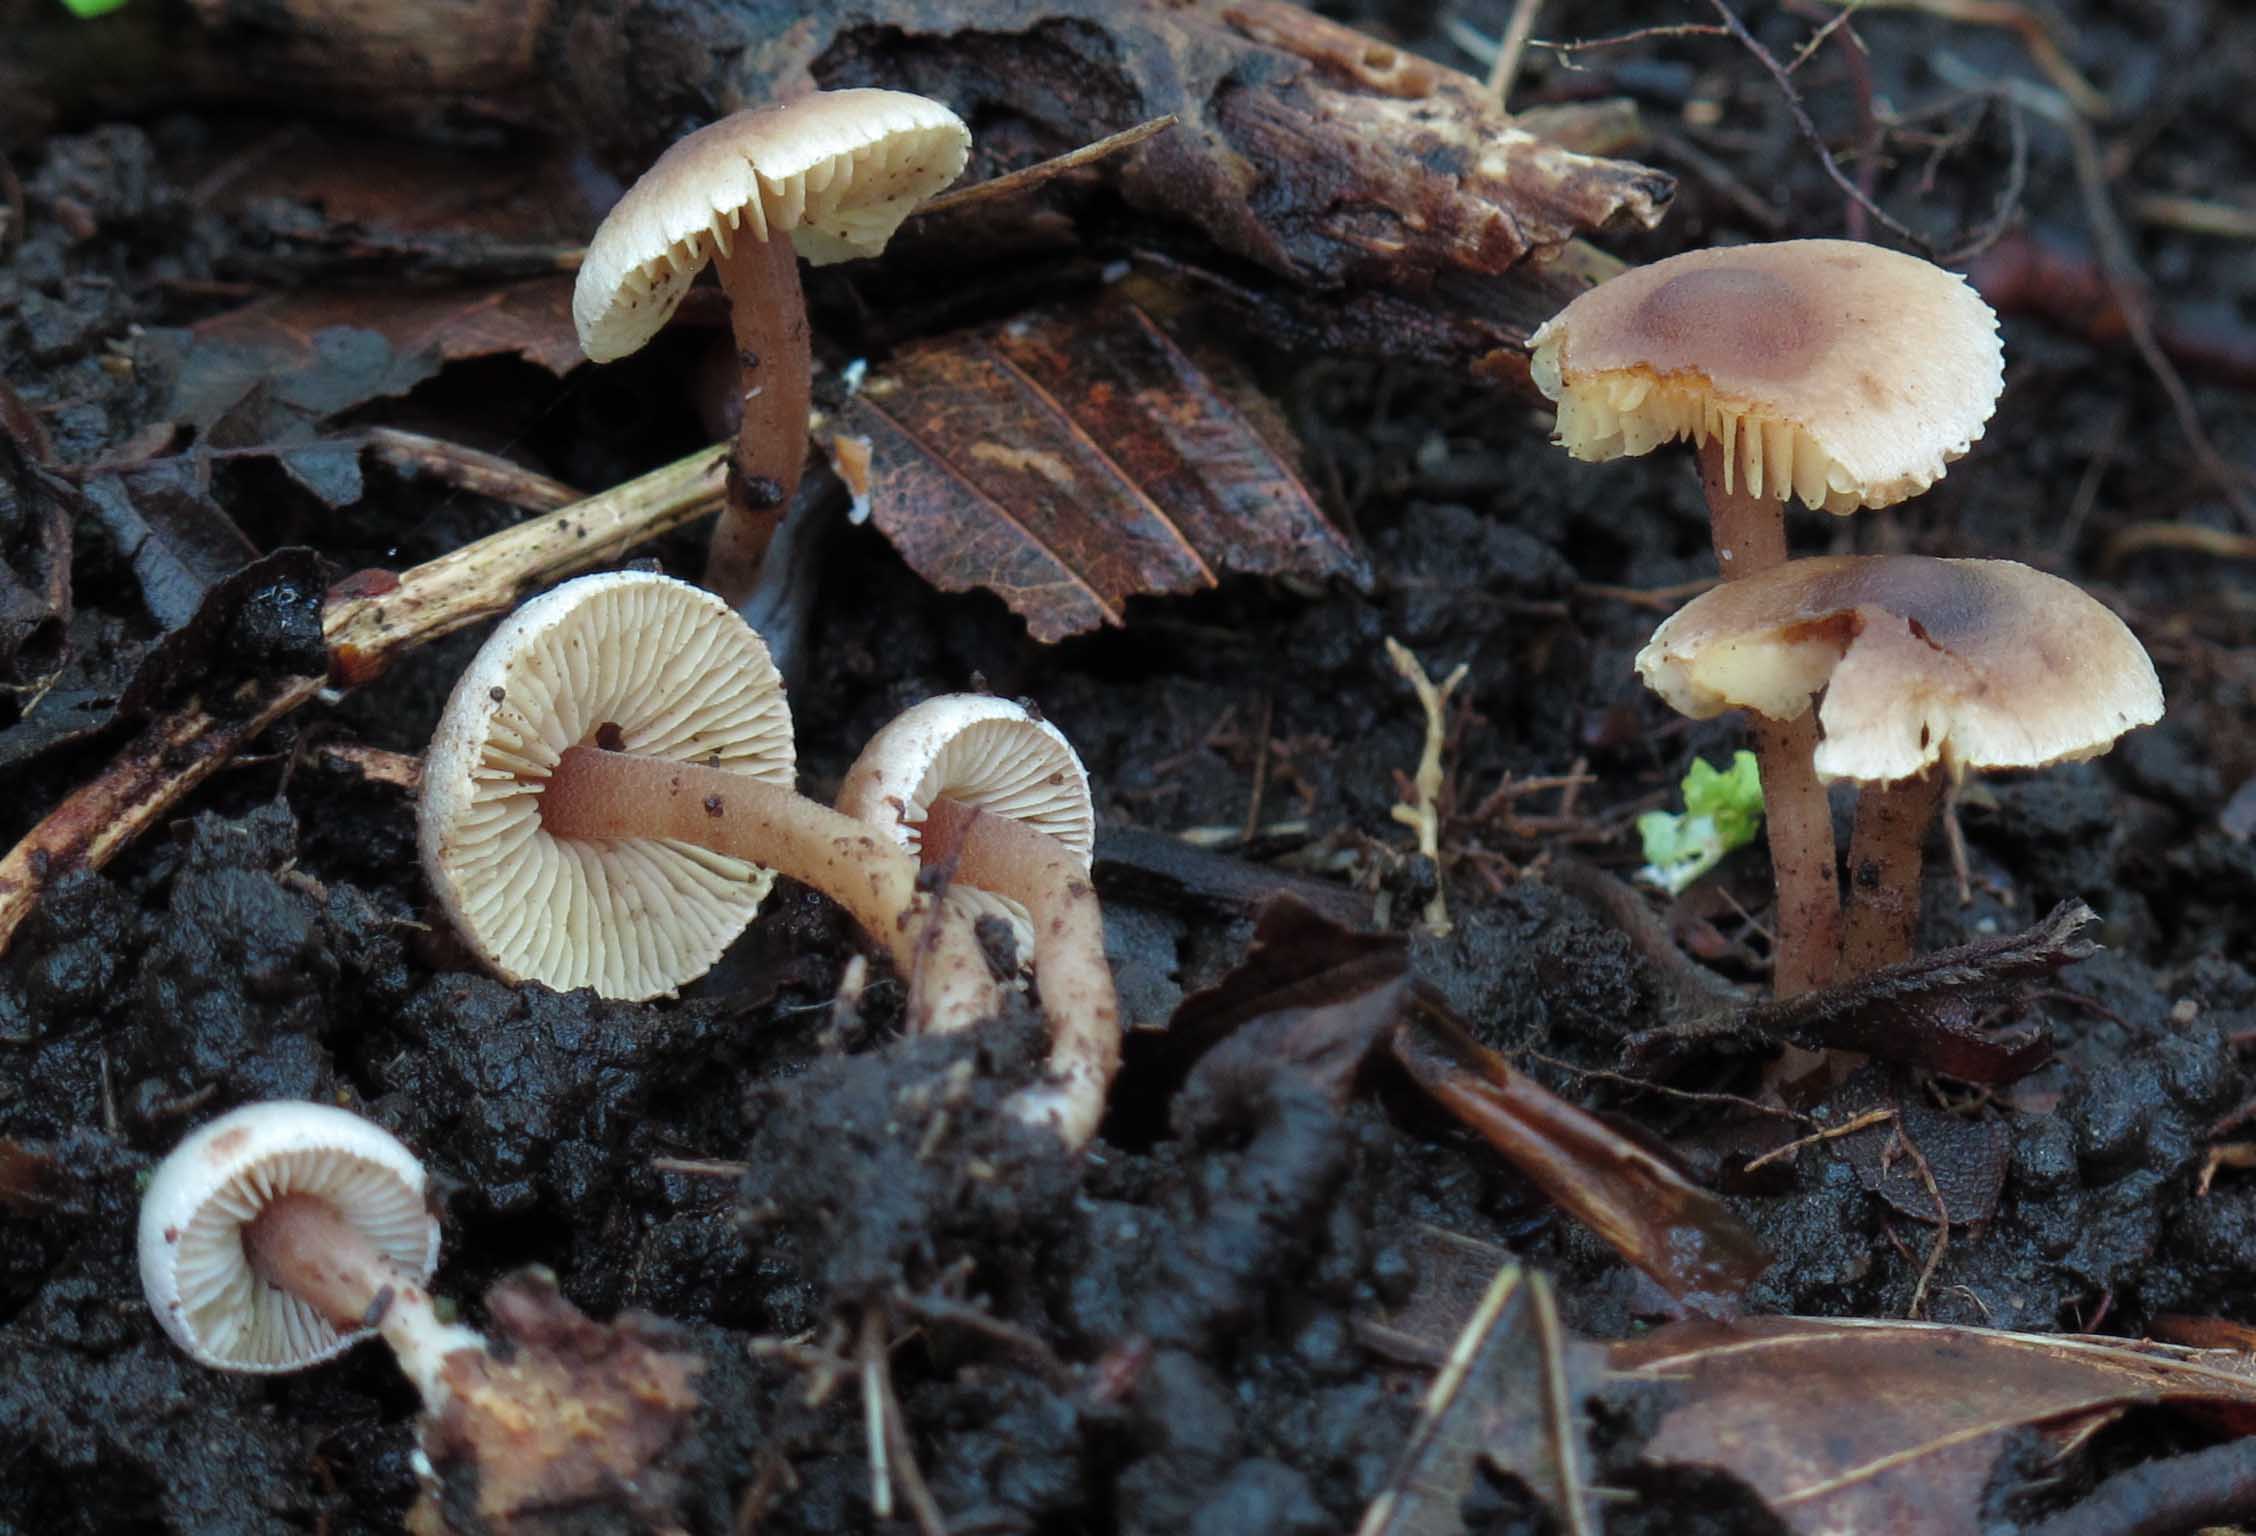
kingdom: Fungi
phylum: Basidiomycota
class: Agaricomycetes
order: Agaricales
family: Inocybaceae
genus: Inocybe
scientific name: Inocybe petiginosa
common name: liden trævlhat
